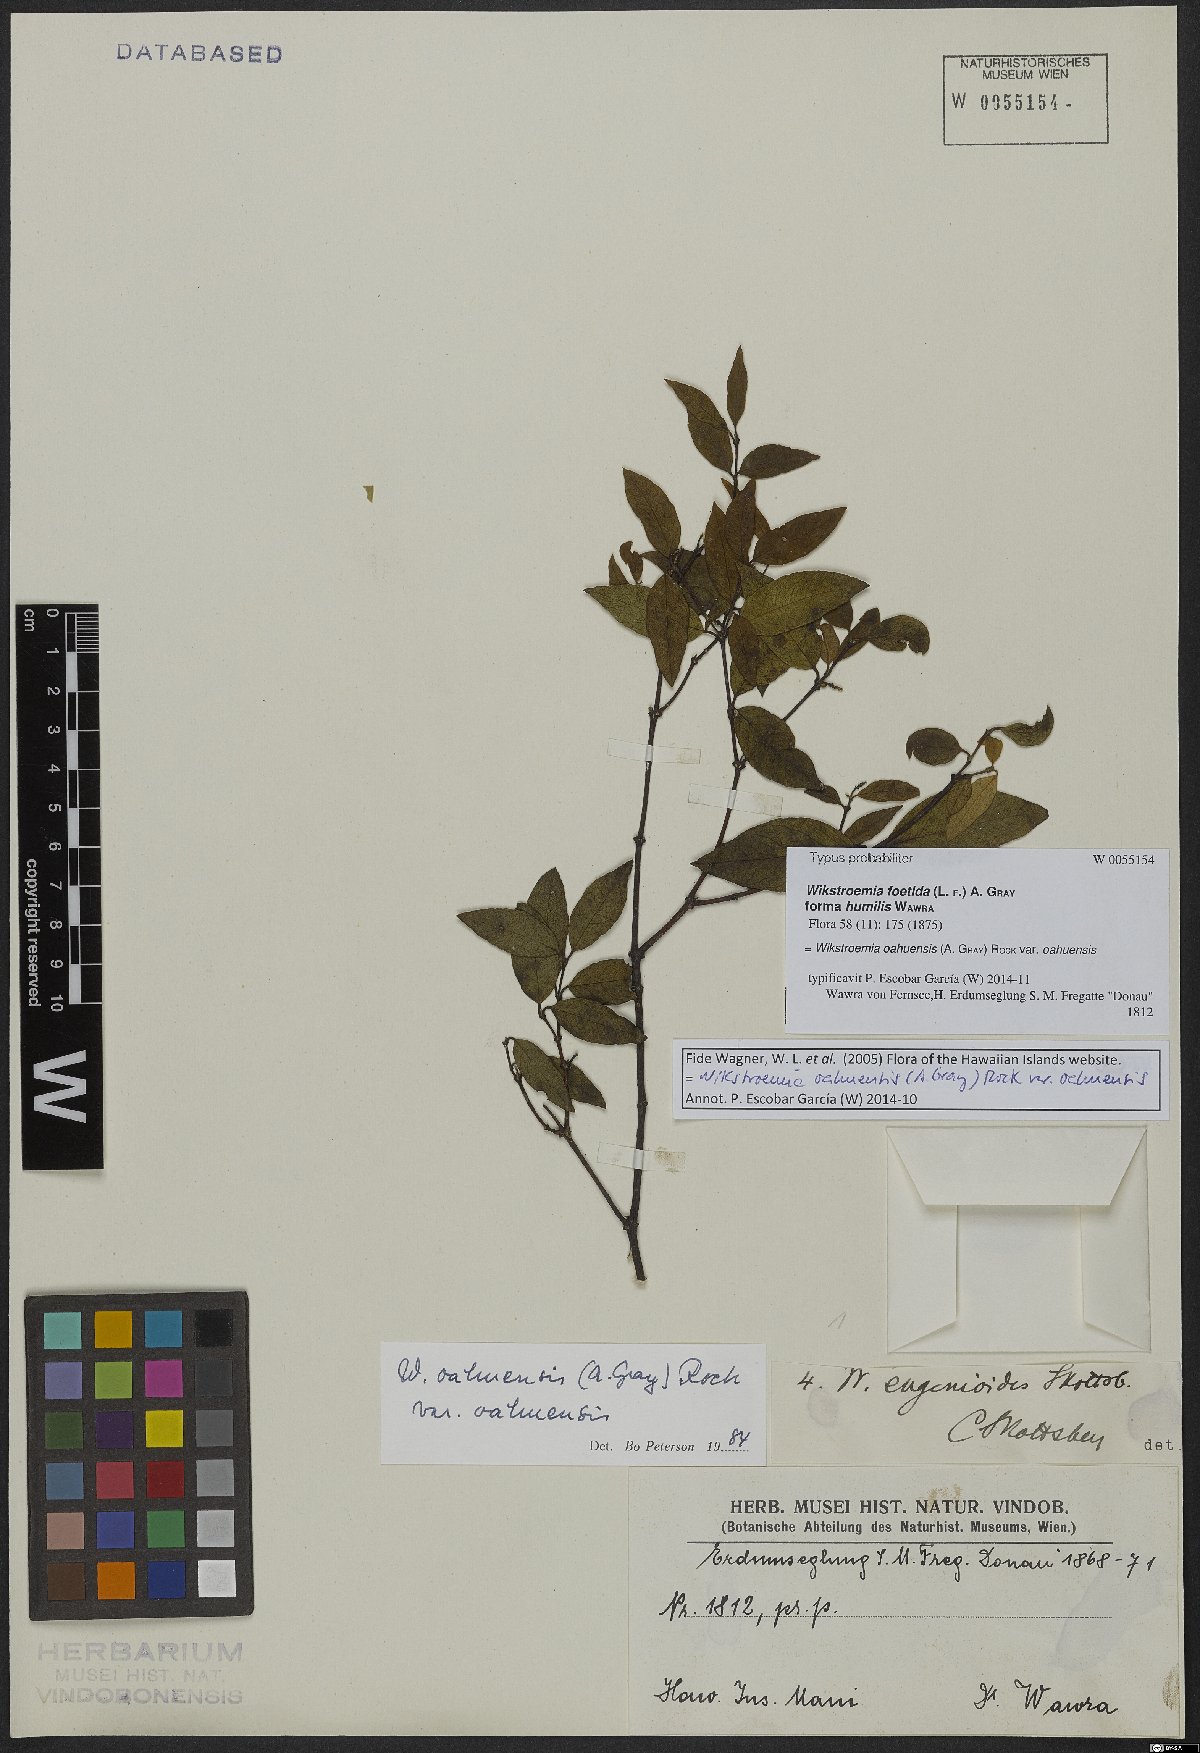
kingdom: Plantae
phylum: Tracheophyta
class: Magnoliopsida
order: Malvales
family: Thymelaeaceae
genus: Wikstroemia
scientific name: Wikstroemia oahuensis
